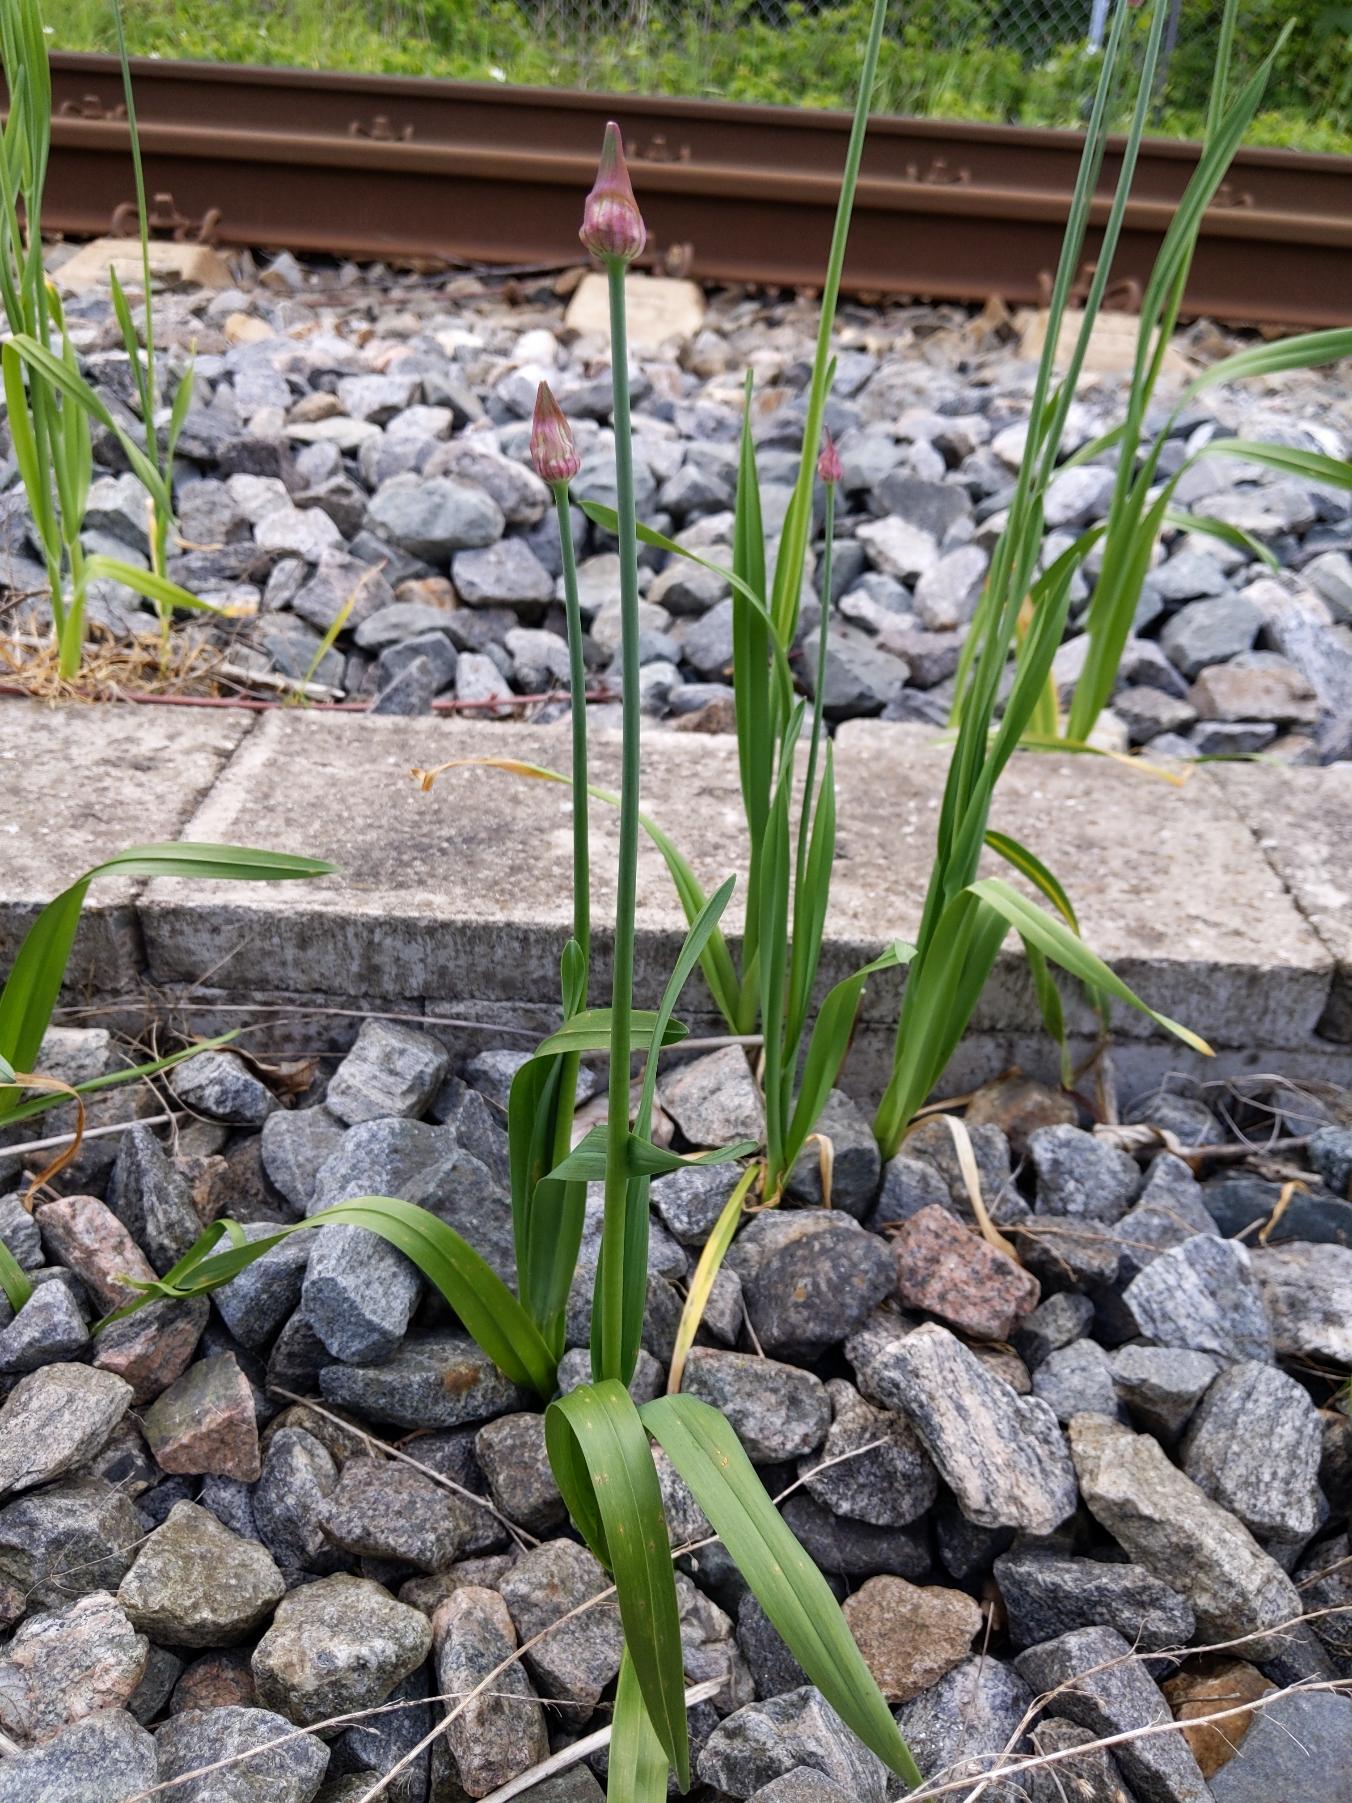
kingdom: Plantae
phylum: Tracheophyta
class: Liliopsida
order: Asparagales
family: Amaryllidaceae
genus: Allium
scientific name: Allium scorodoprasum
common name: Skov-løg
